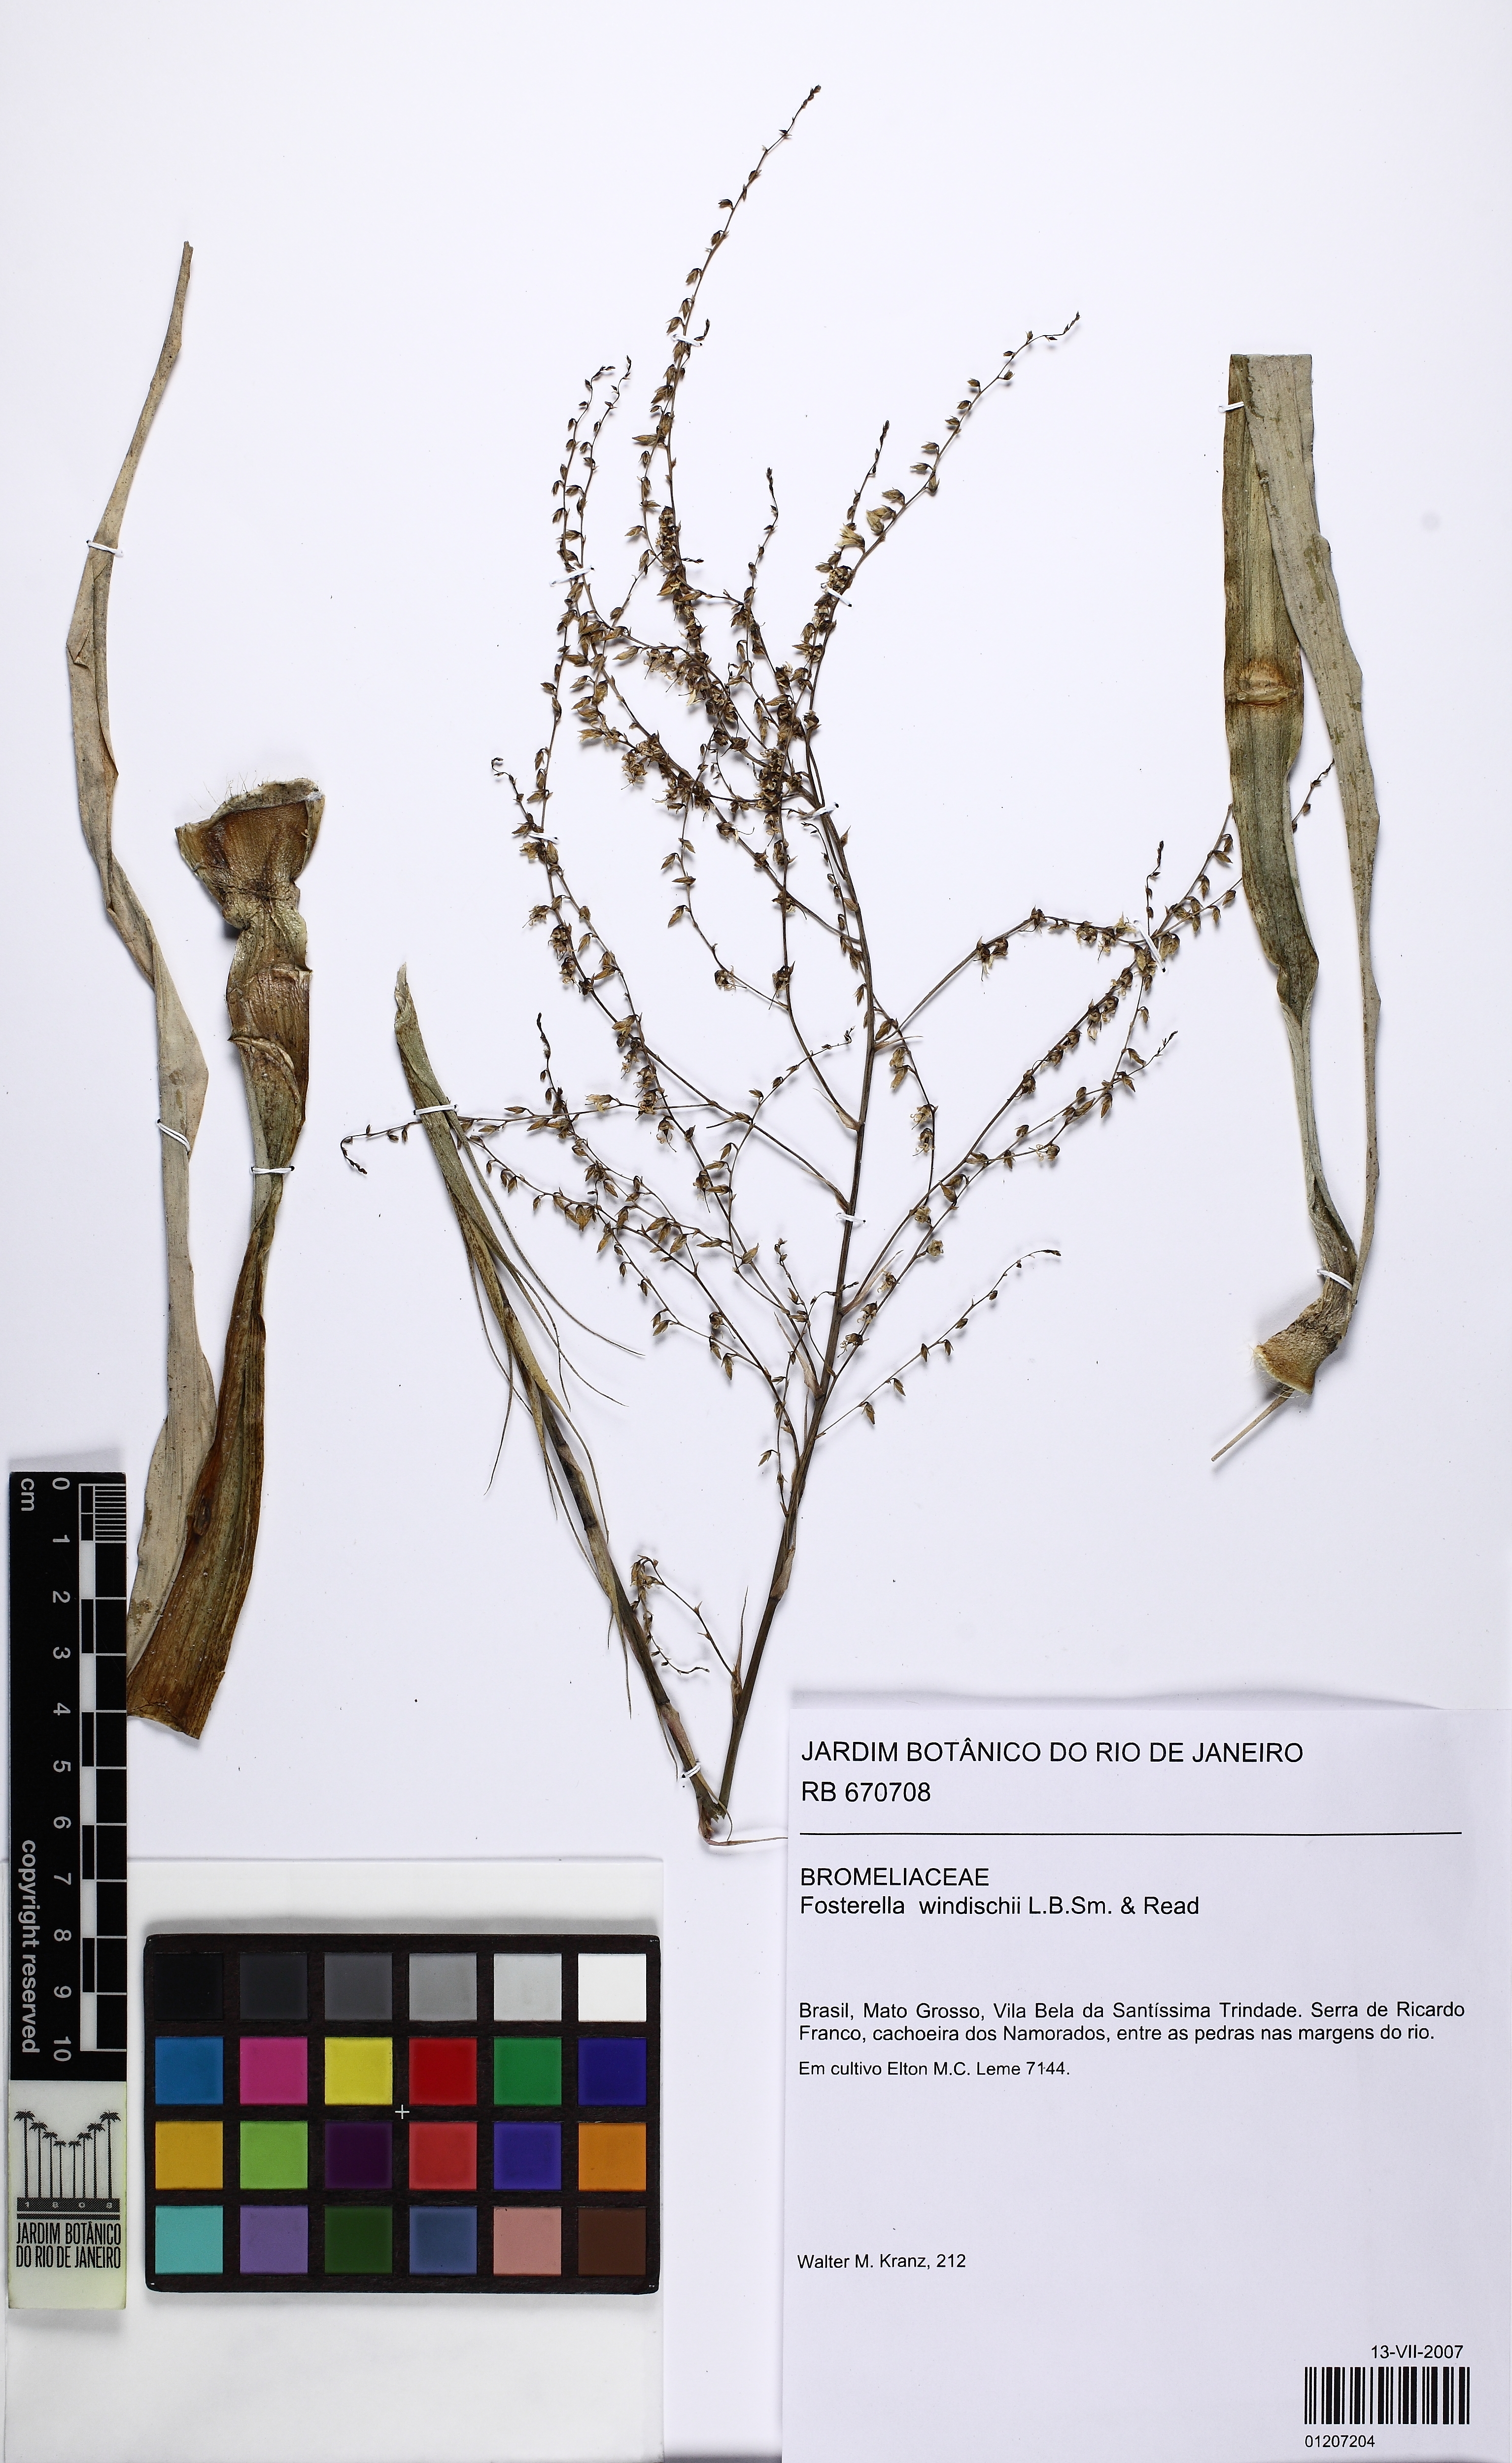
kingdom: Plantae
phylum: Tracheophyta
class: Liliopsida
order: Poales
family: Bromeliaceae
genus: Fosterella
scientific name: Fosterella windischii
